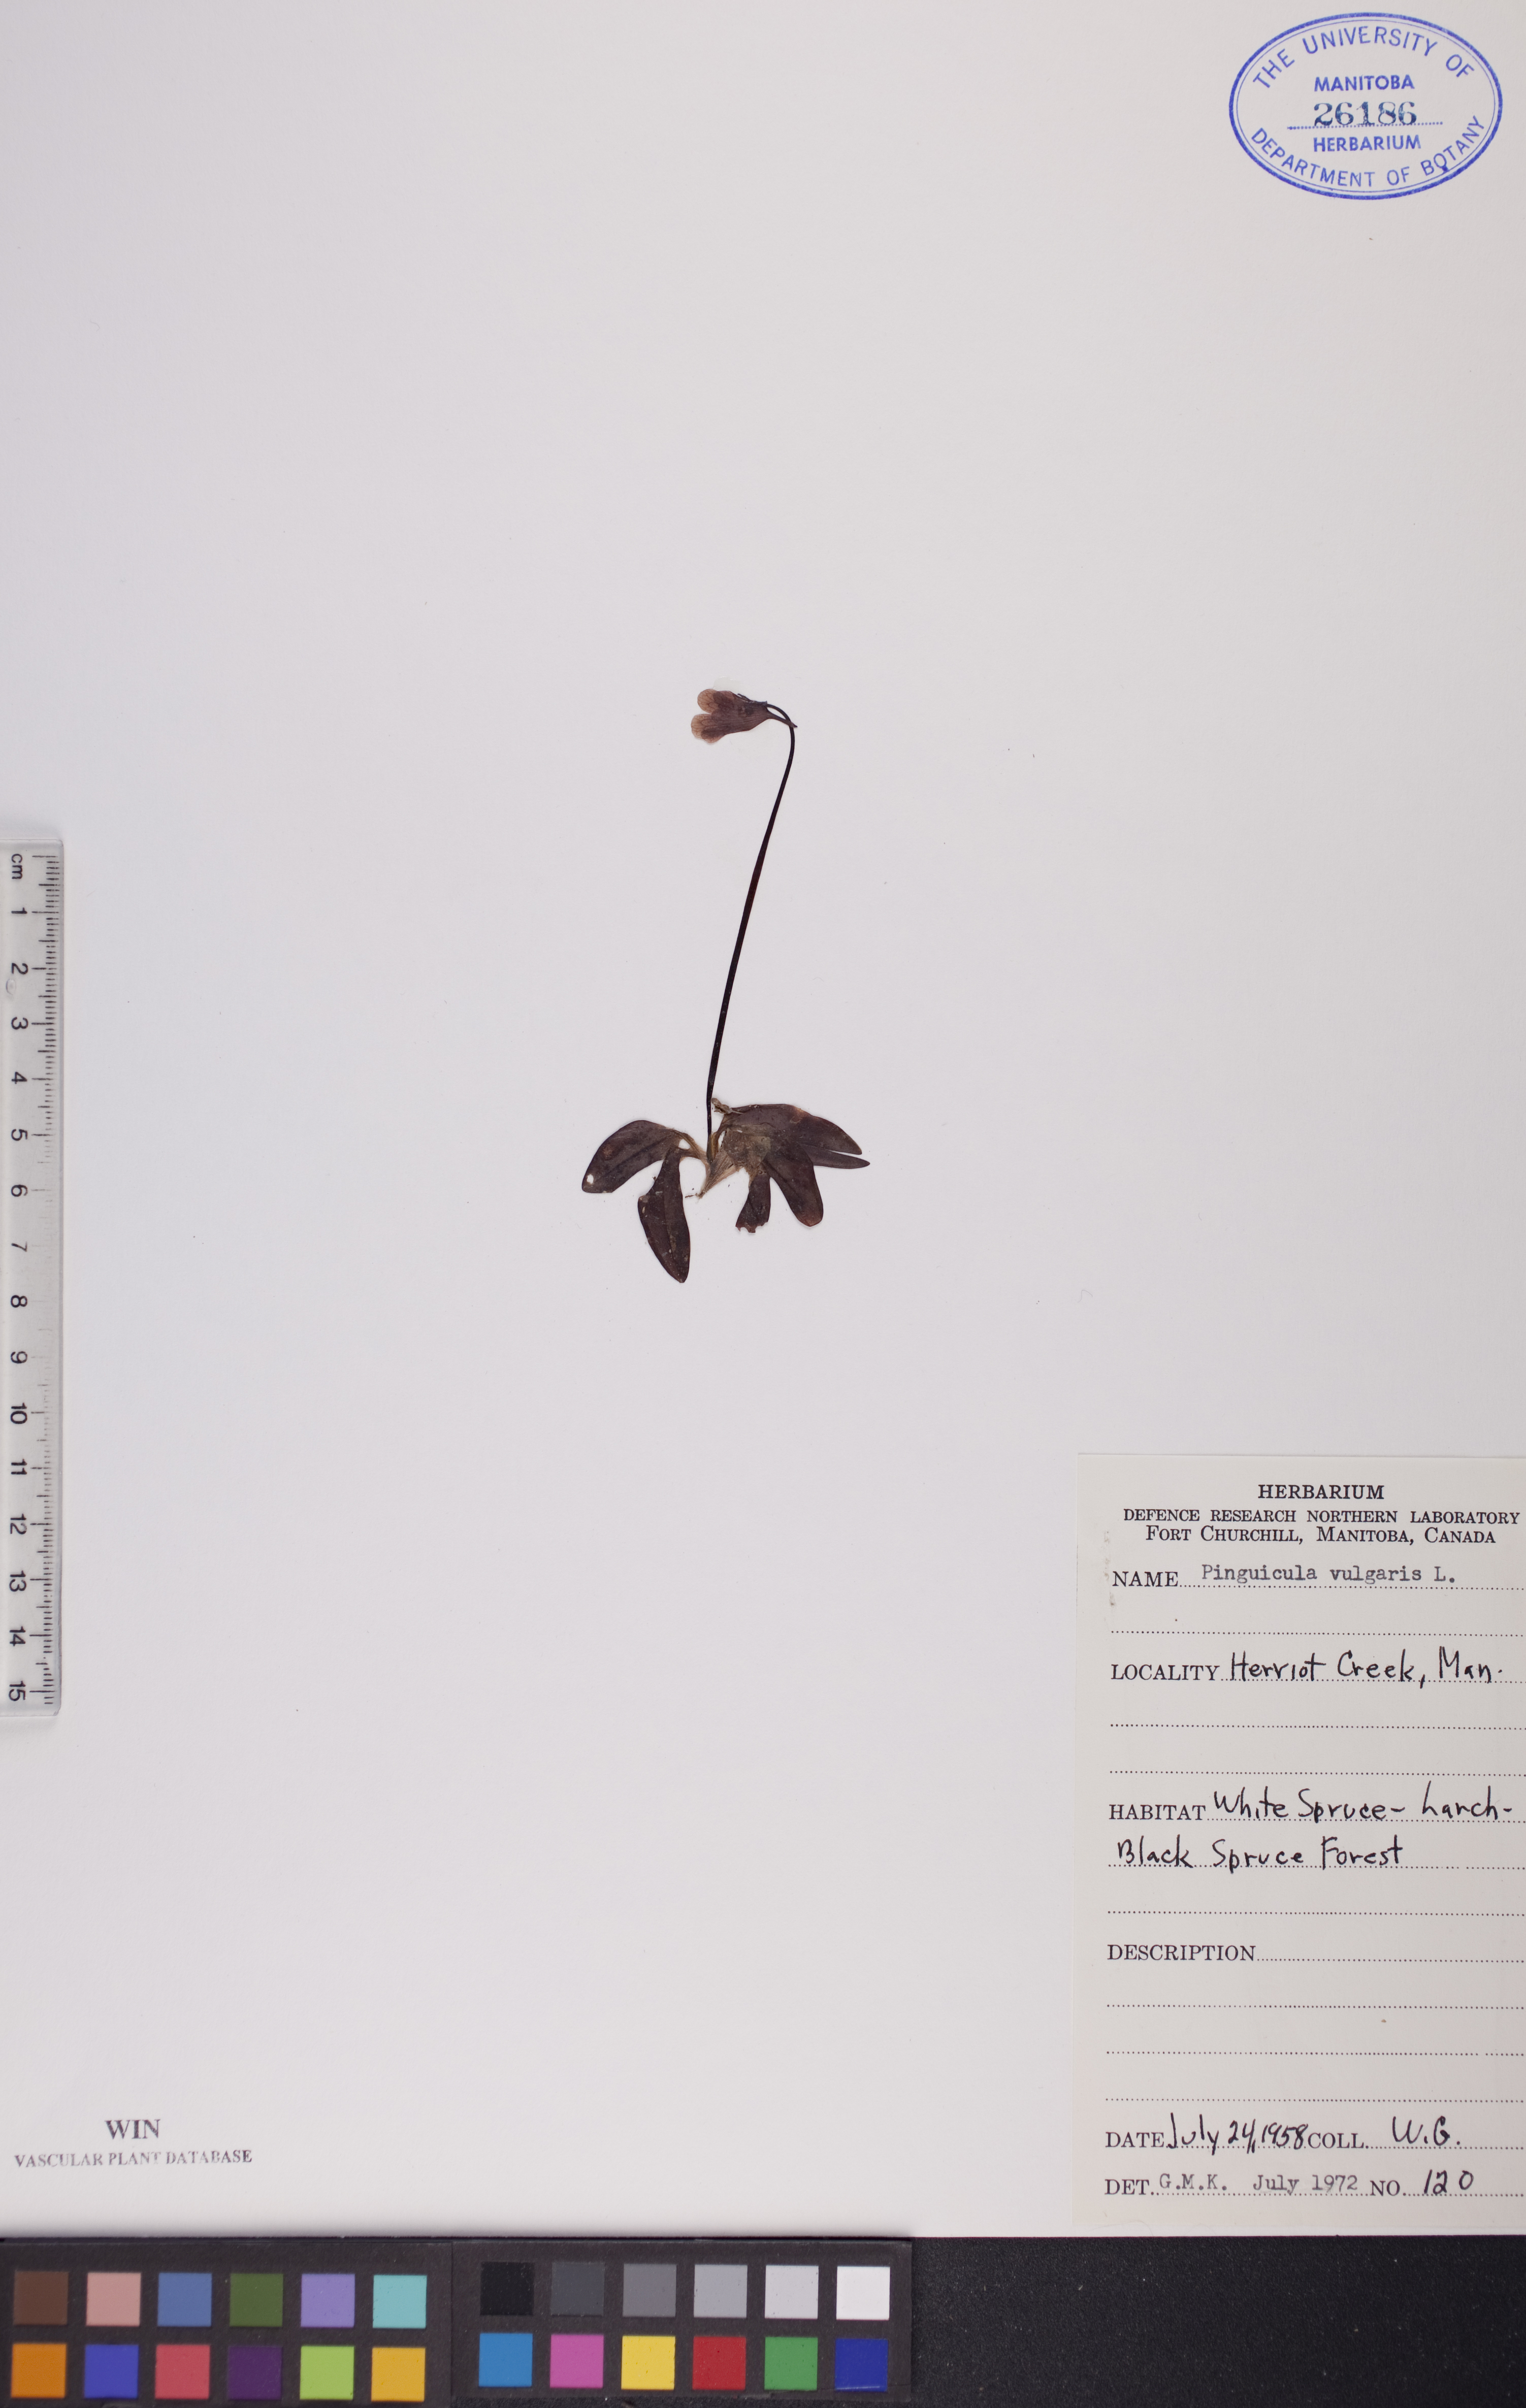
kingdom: Plantae
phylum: Tracheophyta
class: Magnoliopsida
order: Lamiales
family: Lentibulariaceae
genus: Pinguicula
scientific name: Pinguicula vulgaris
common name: Common butterwort
